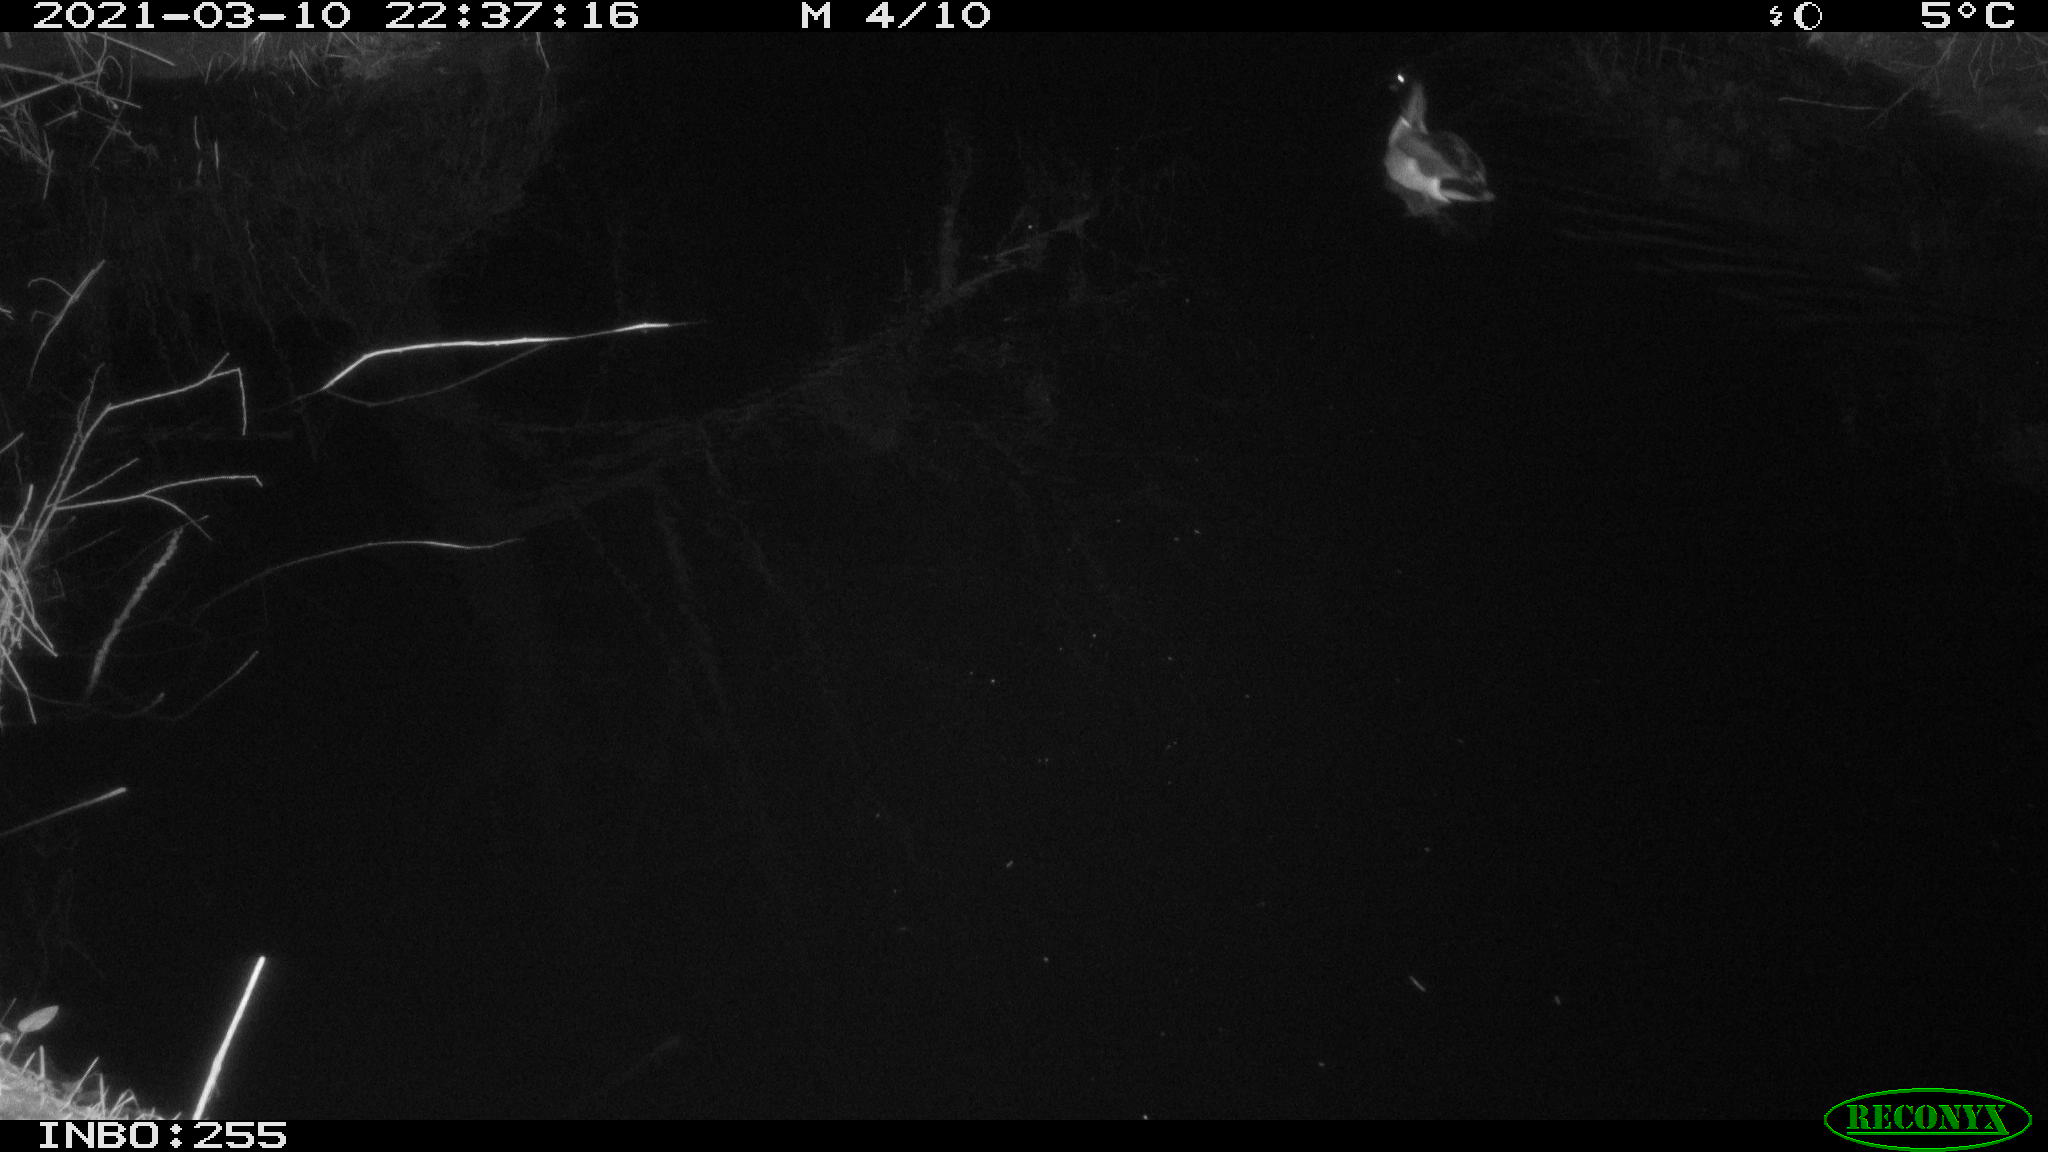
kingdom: Animalia
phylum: Chordata
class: Aves
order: Anseriformes
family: Anatidae
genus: Anas
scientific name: Anas platyrhynchos
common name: Mallard
